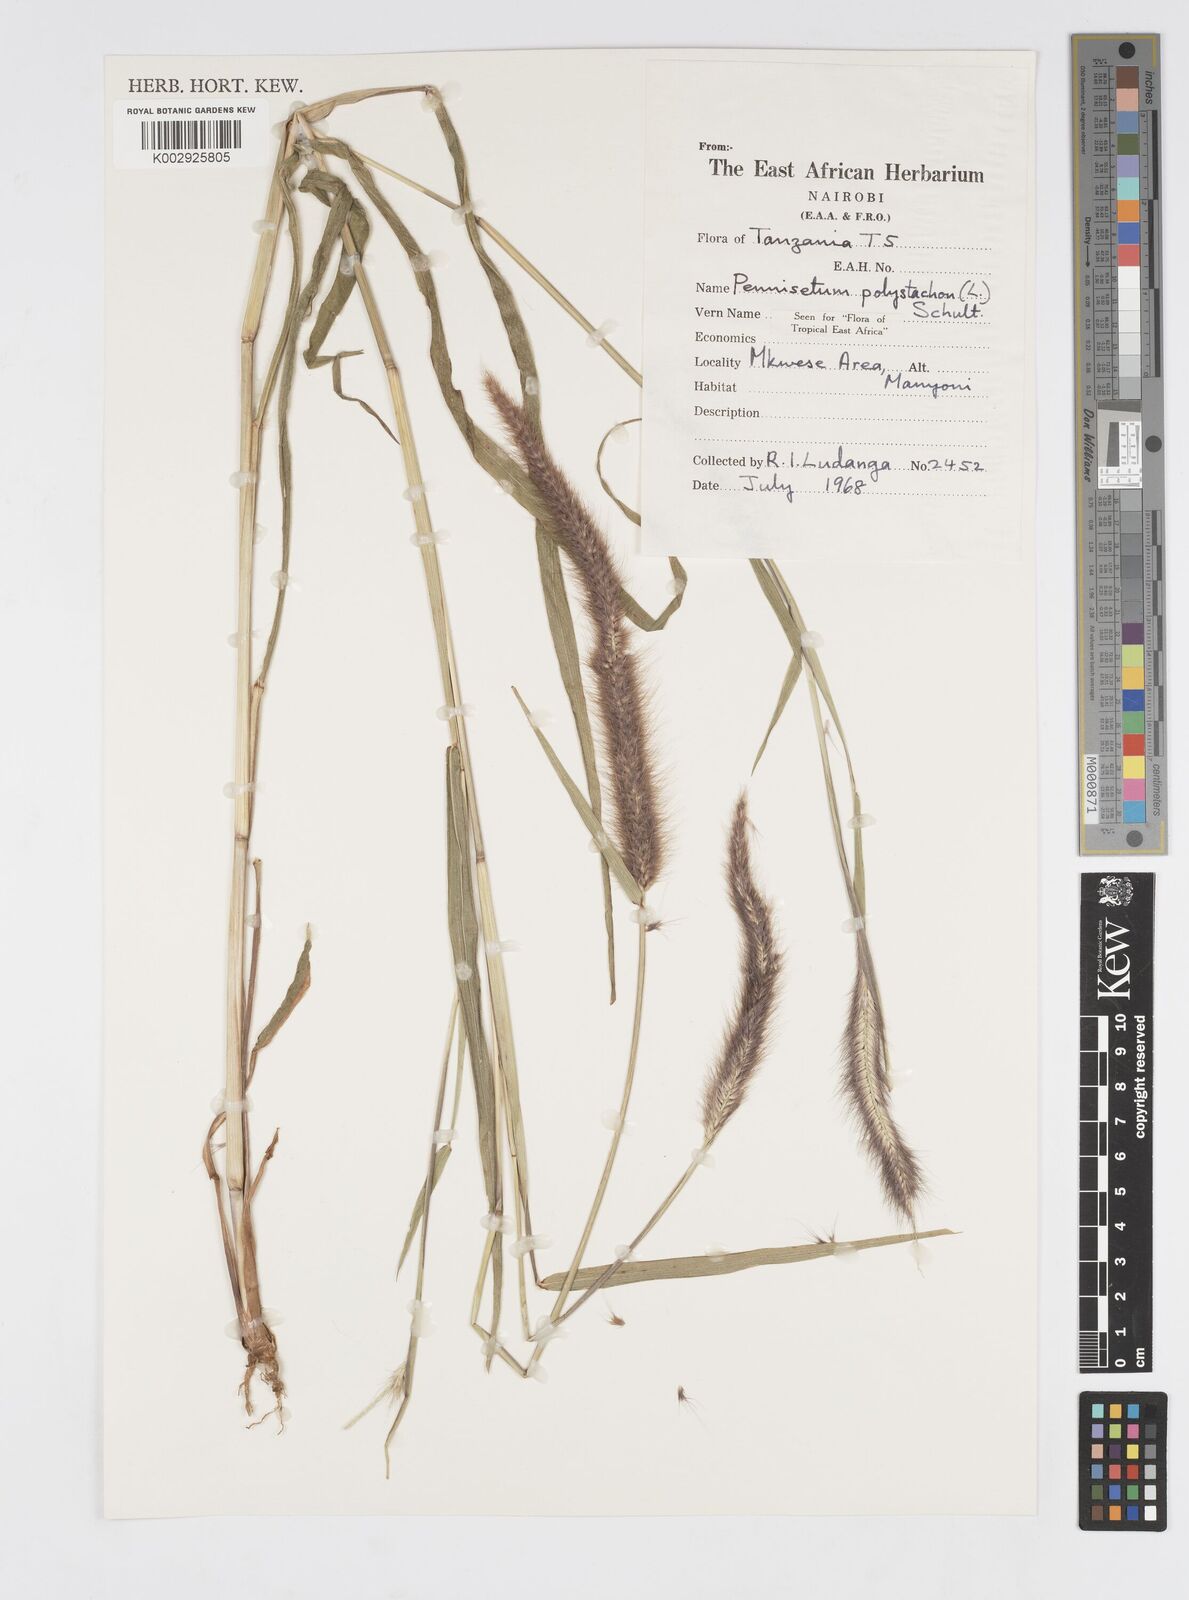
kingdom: Plantae
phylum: Tracheophyta
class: Liliopsida
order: Poales
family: Poaceae
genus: Setaria
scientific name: Setaria parviflora
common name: Knotroot bristle-grass
